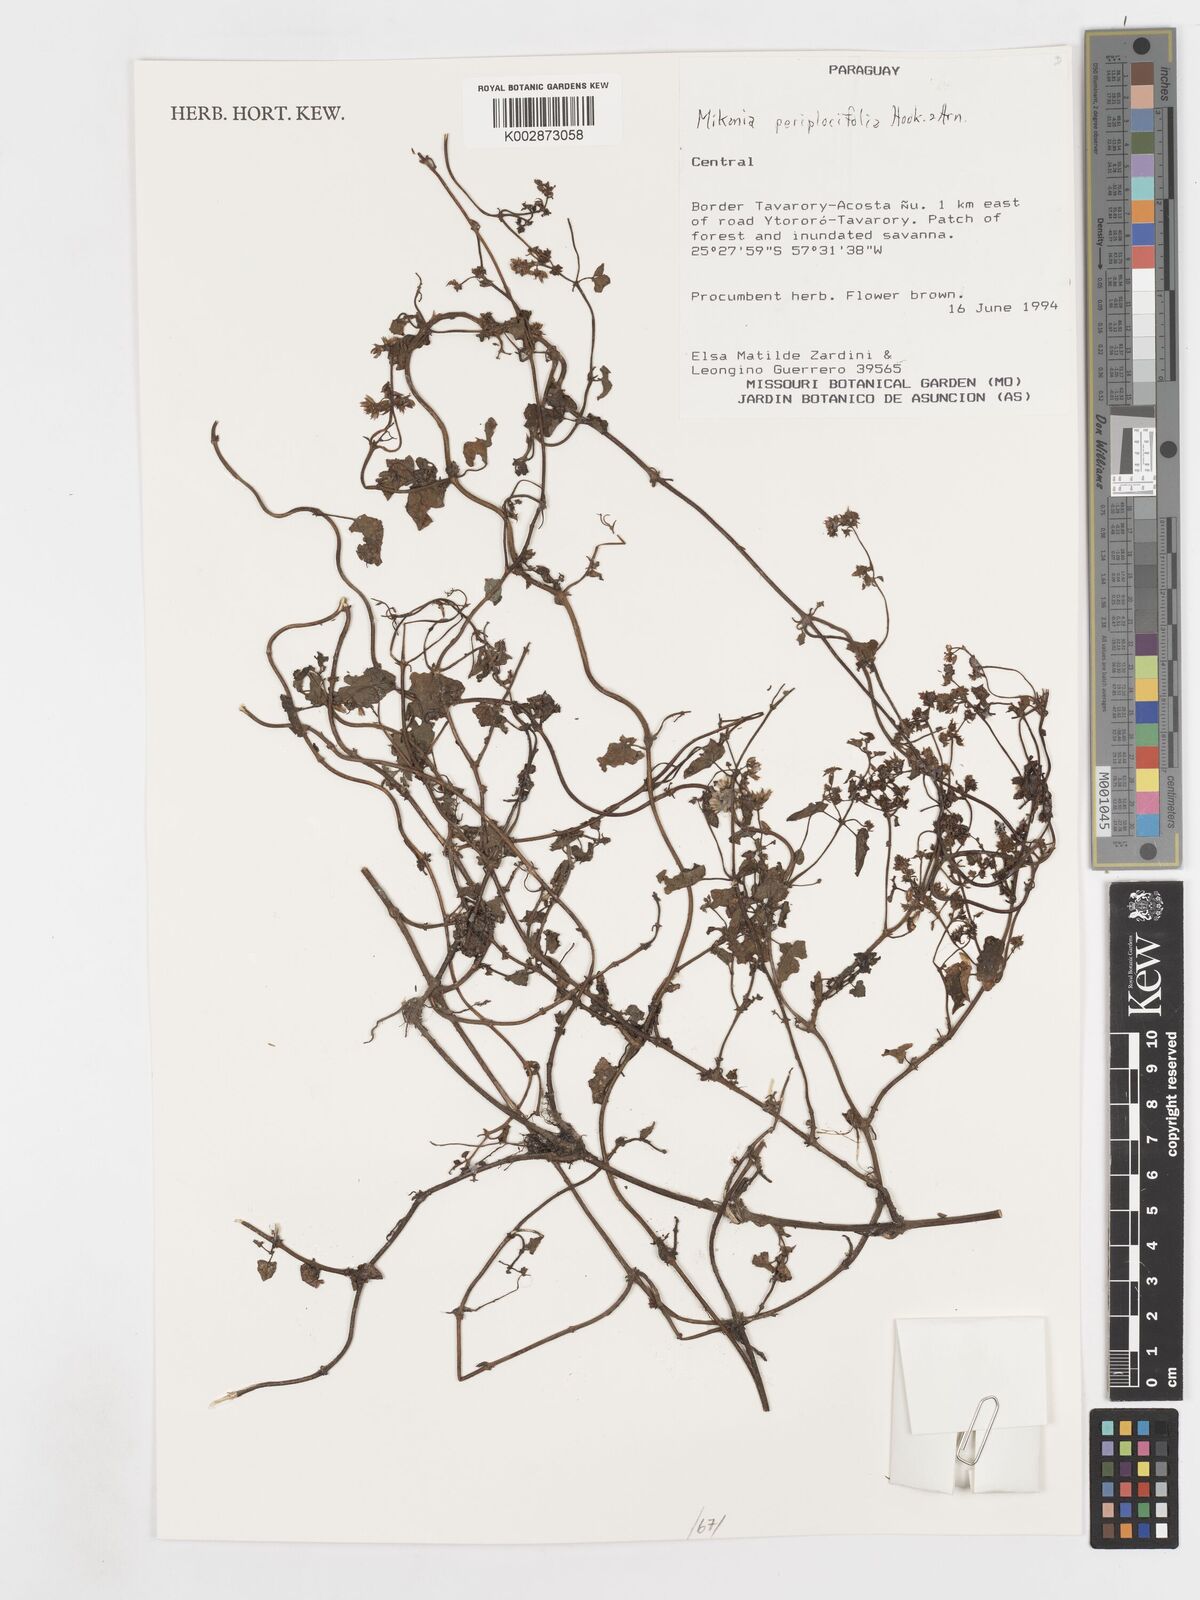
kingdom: Plantae
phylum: Tracheophyta
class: Magnoliopsida
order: Asterales
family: Asteraceae
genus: Mikania
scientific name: Mikania periplocifolia
